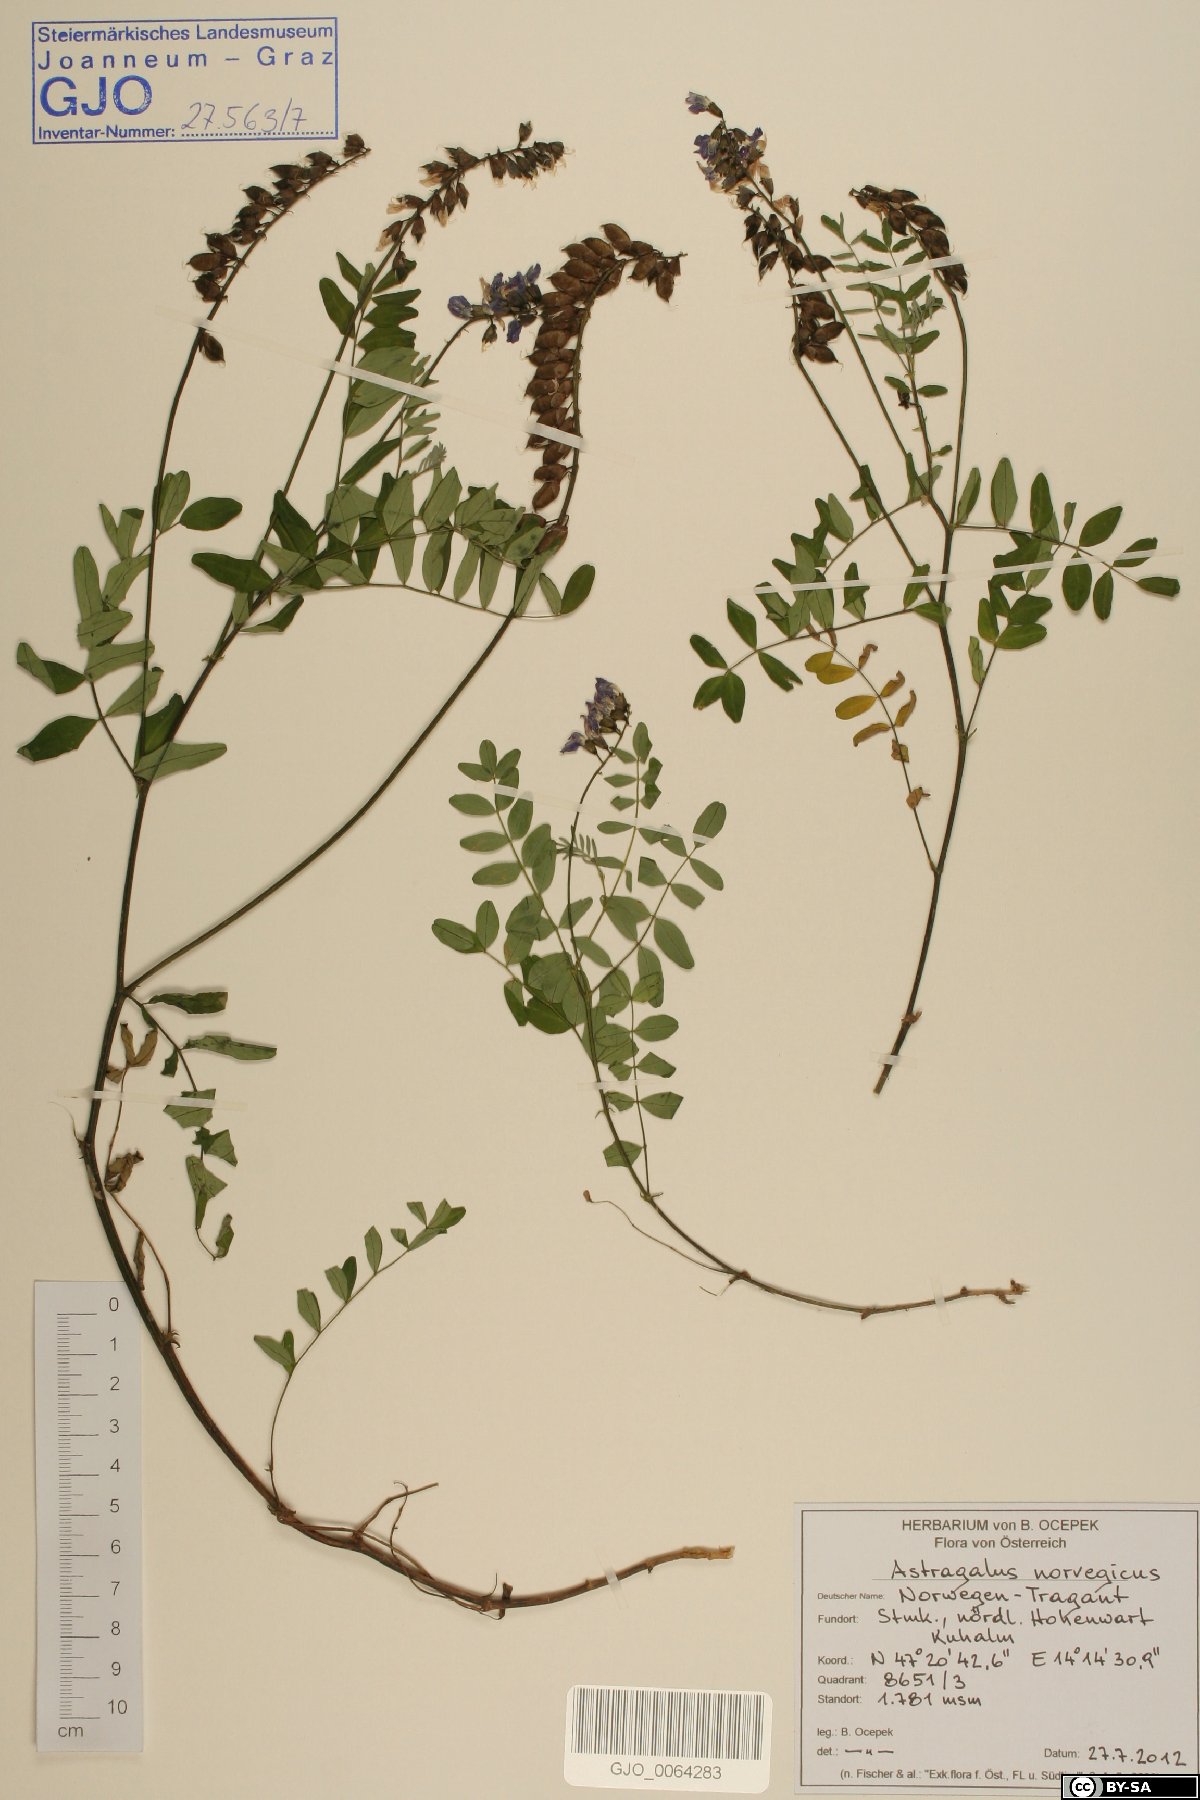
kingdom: Plantae
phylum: Tracheophyta
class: Magnoliopsida
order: Fabales
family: Fabaceae
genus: Astragalus
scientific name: Astragalus norvegicus
